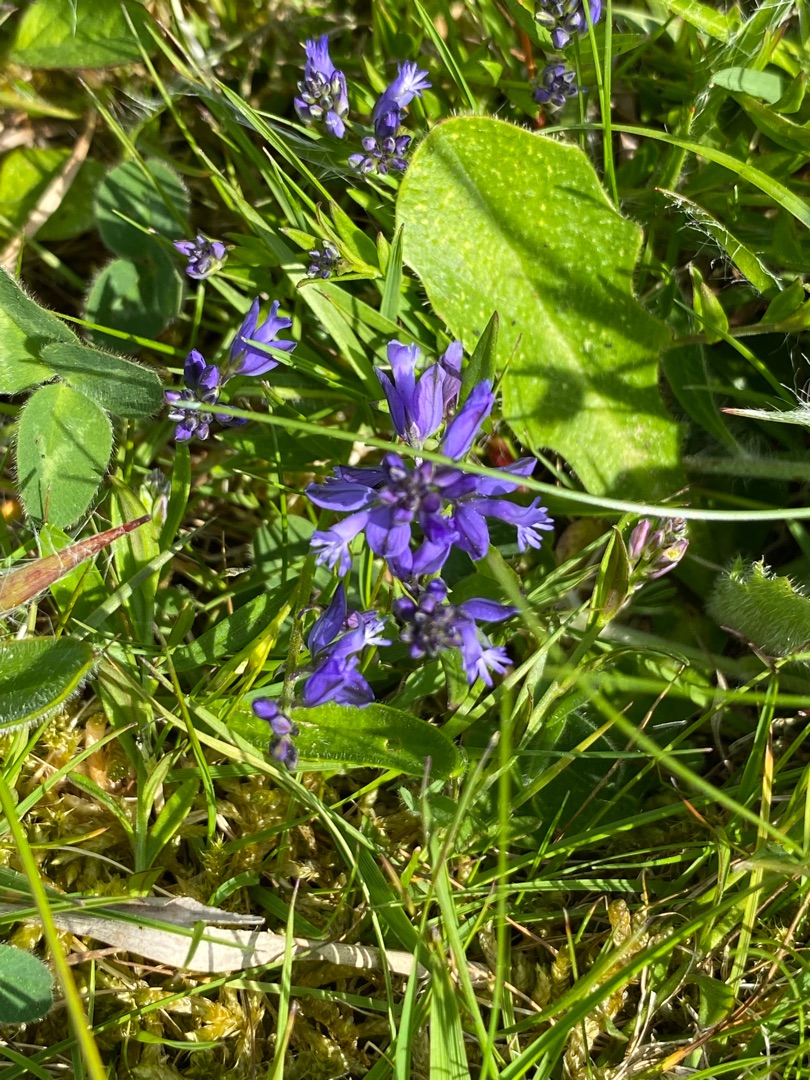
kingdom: Plantae
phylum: Tracheophyta
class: Magnoliopsida
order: Fabales
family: Polygalaceae
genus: Polygala
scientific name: Polygala vulgaris
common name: Almindelig mælkeurt
